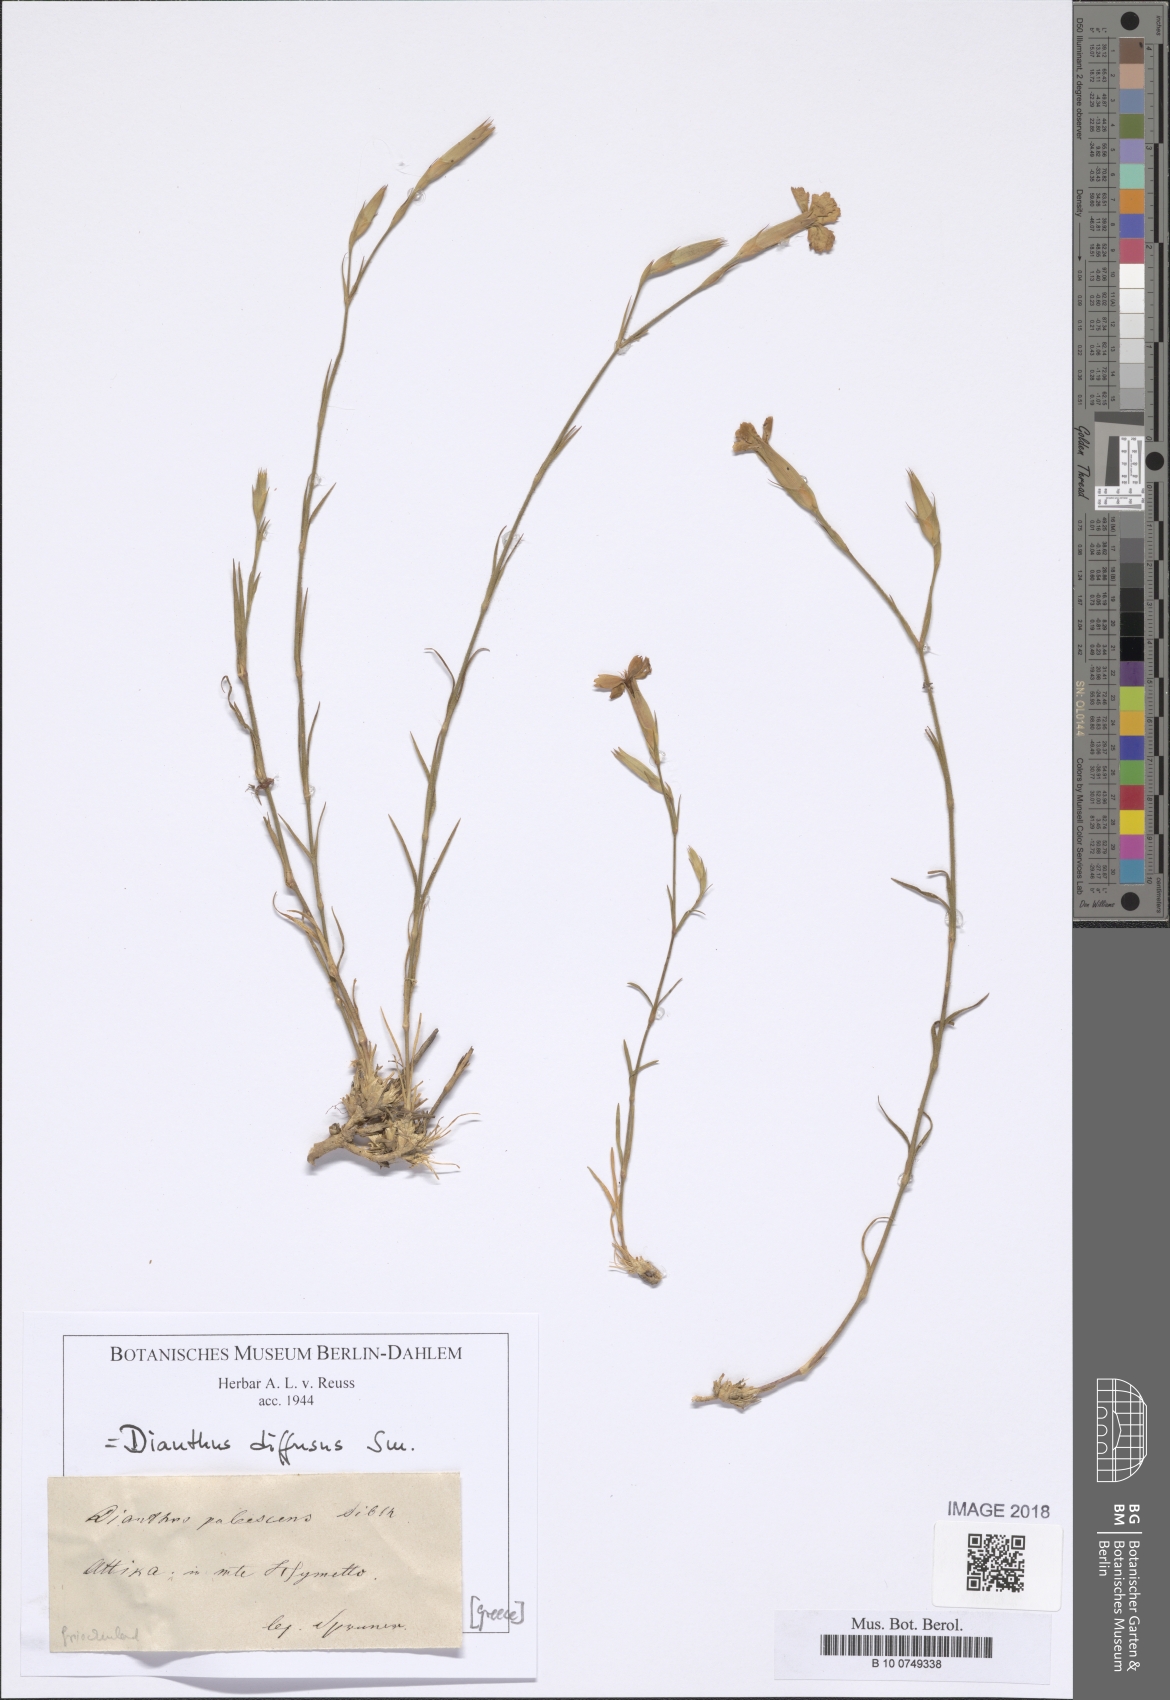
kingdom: Plantae
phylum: Tracheophyta
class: Magnoliopsida
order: Caryophyllales
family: Caryophyllaceae
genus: Dianthus
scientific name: Dianthus diffusus
